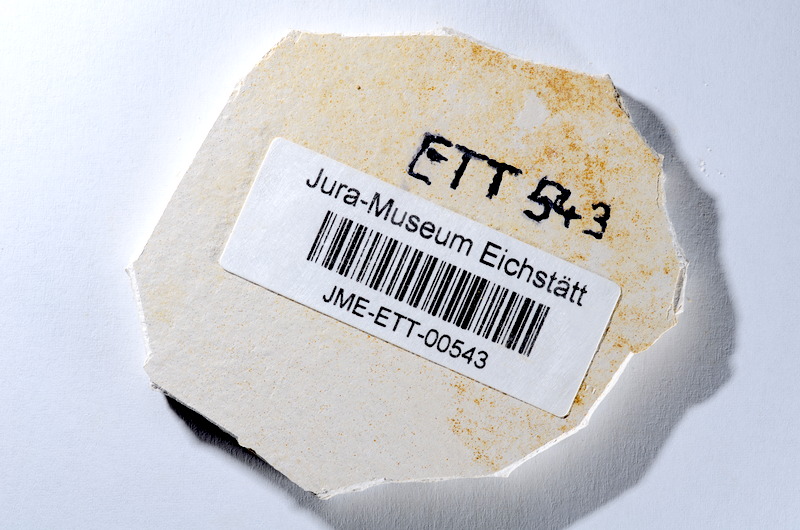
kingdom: Animalia
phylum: Chordata
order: Salmoniformes
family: Orthogonikleithridae
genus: Orthogonikleithrus
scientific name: Orthogonikleithrus hoelli
